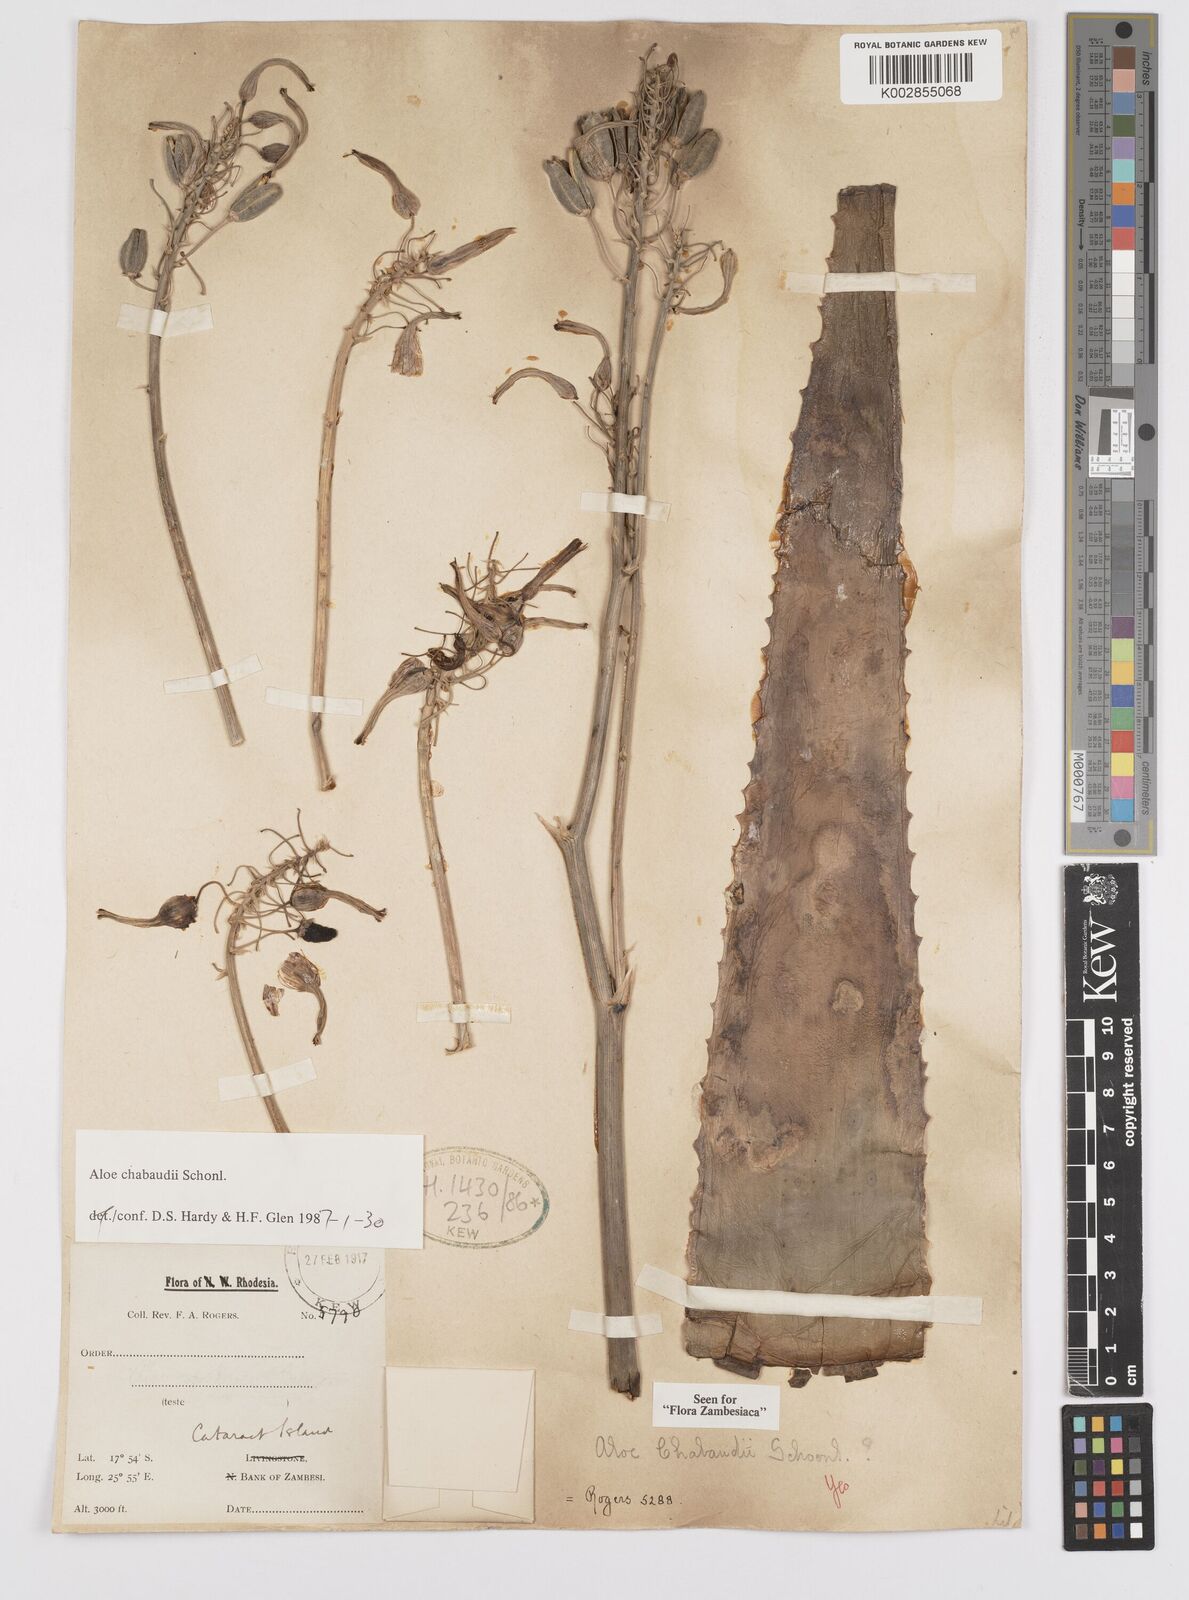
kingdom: Plantae
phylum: Tracheophyta
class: Liliopsida
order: Asparagales
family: Asphodelaceae
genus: Aloe
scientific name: Aloe chabaudii
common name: Chabaud's aloe
